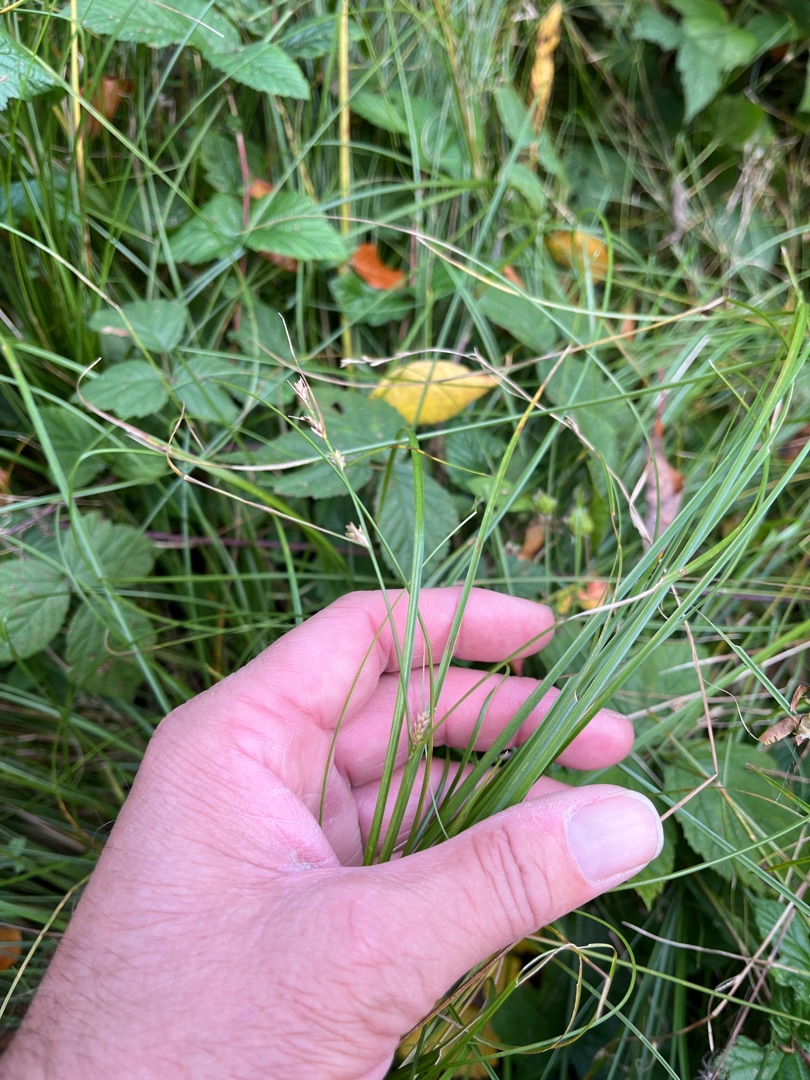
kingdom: Plantae
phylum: Tracheophyta
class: Liliopsida
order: Poales
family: Cyperaceae
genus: Carex
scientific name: Carex remota
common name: Akselblomstret star
